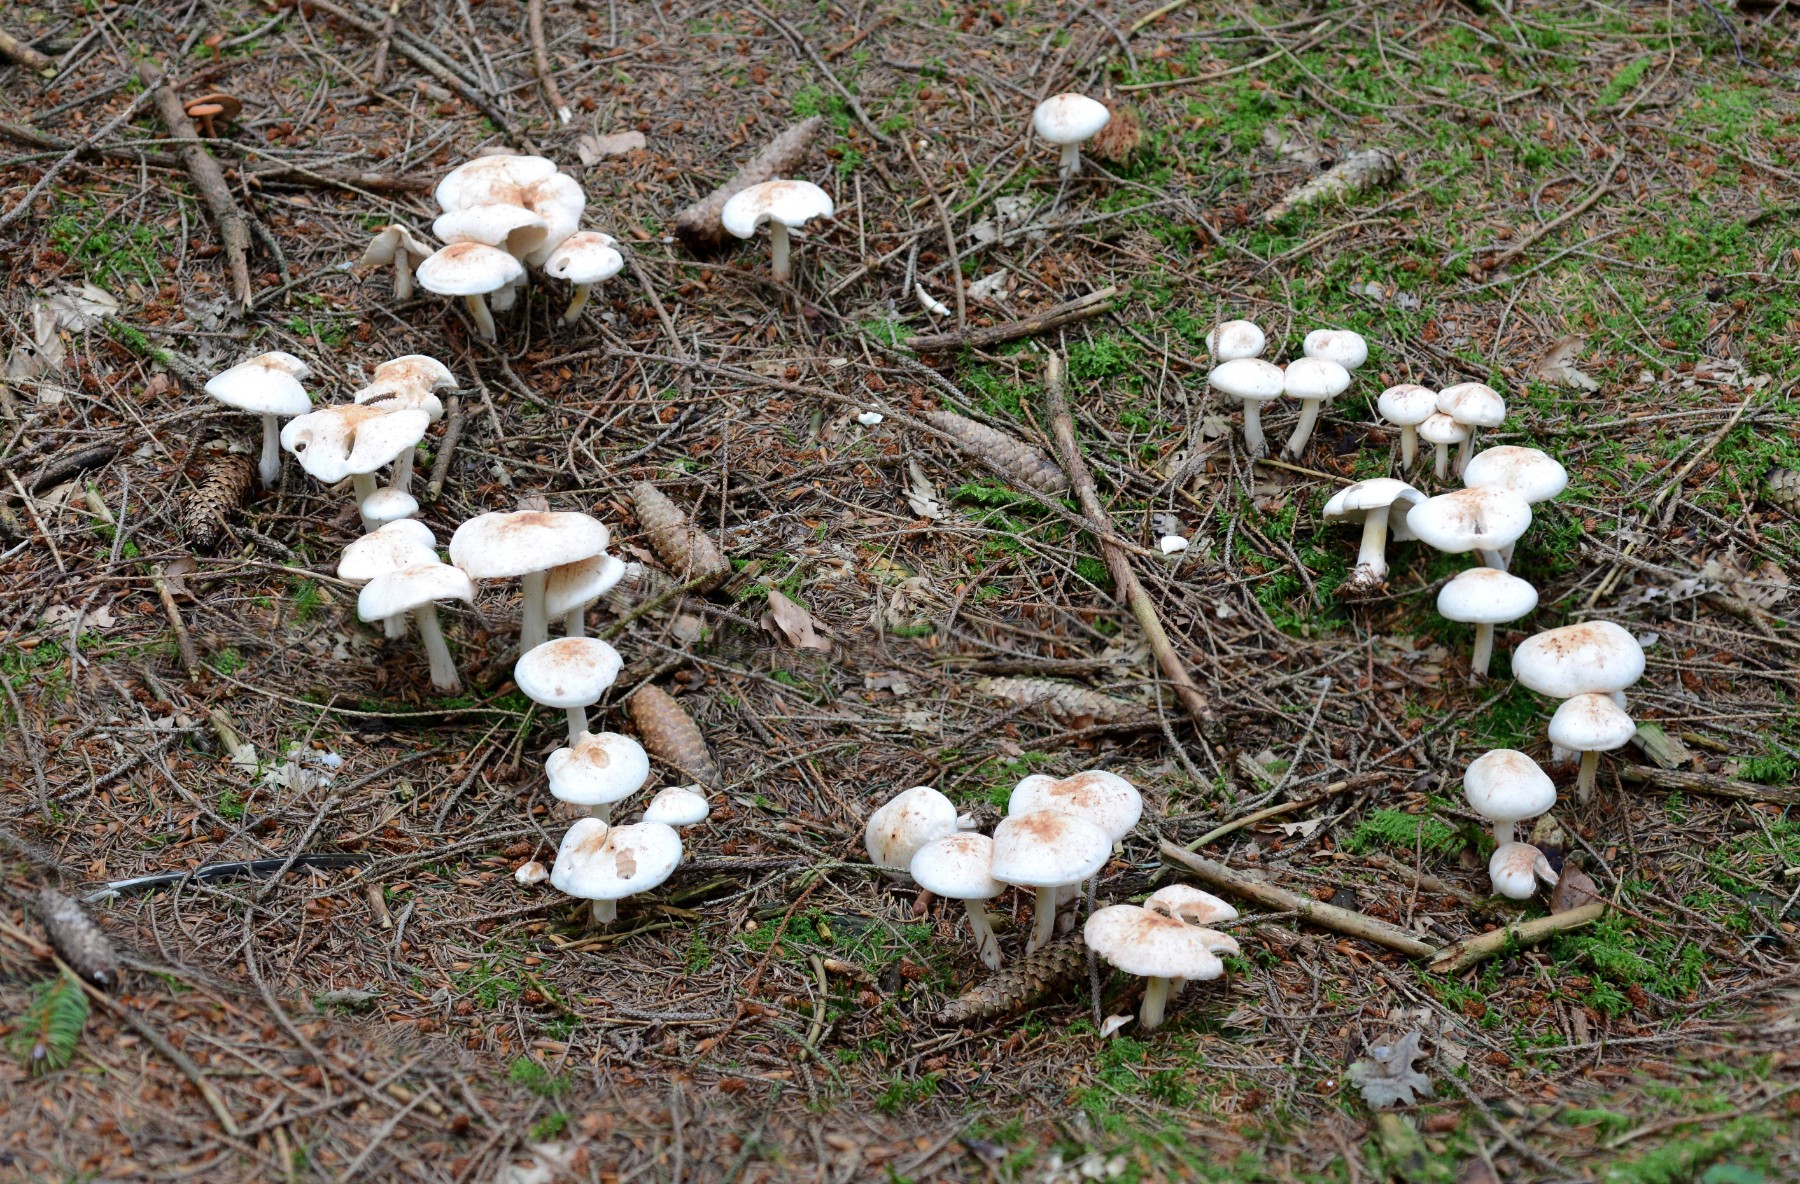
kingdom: Fungi
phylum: Basidiomycota
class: Agaricomycetes
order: Agaricales
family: Omphalotaceae
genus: Rhodocollybia
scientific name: Rhodocollybia maculata
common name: plettet fladhat
